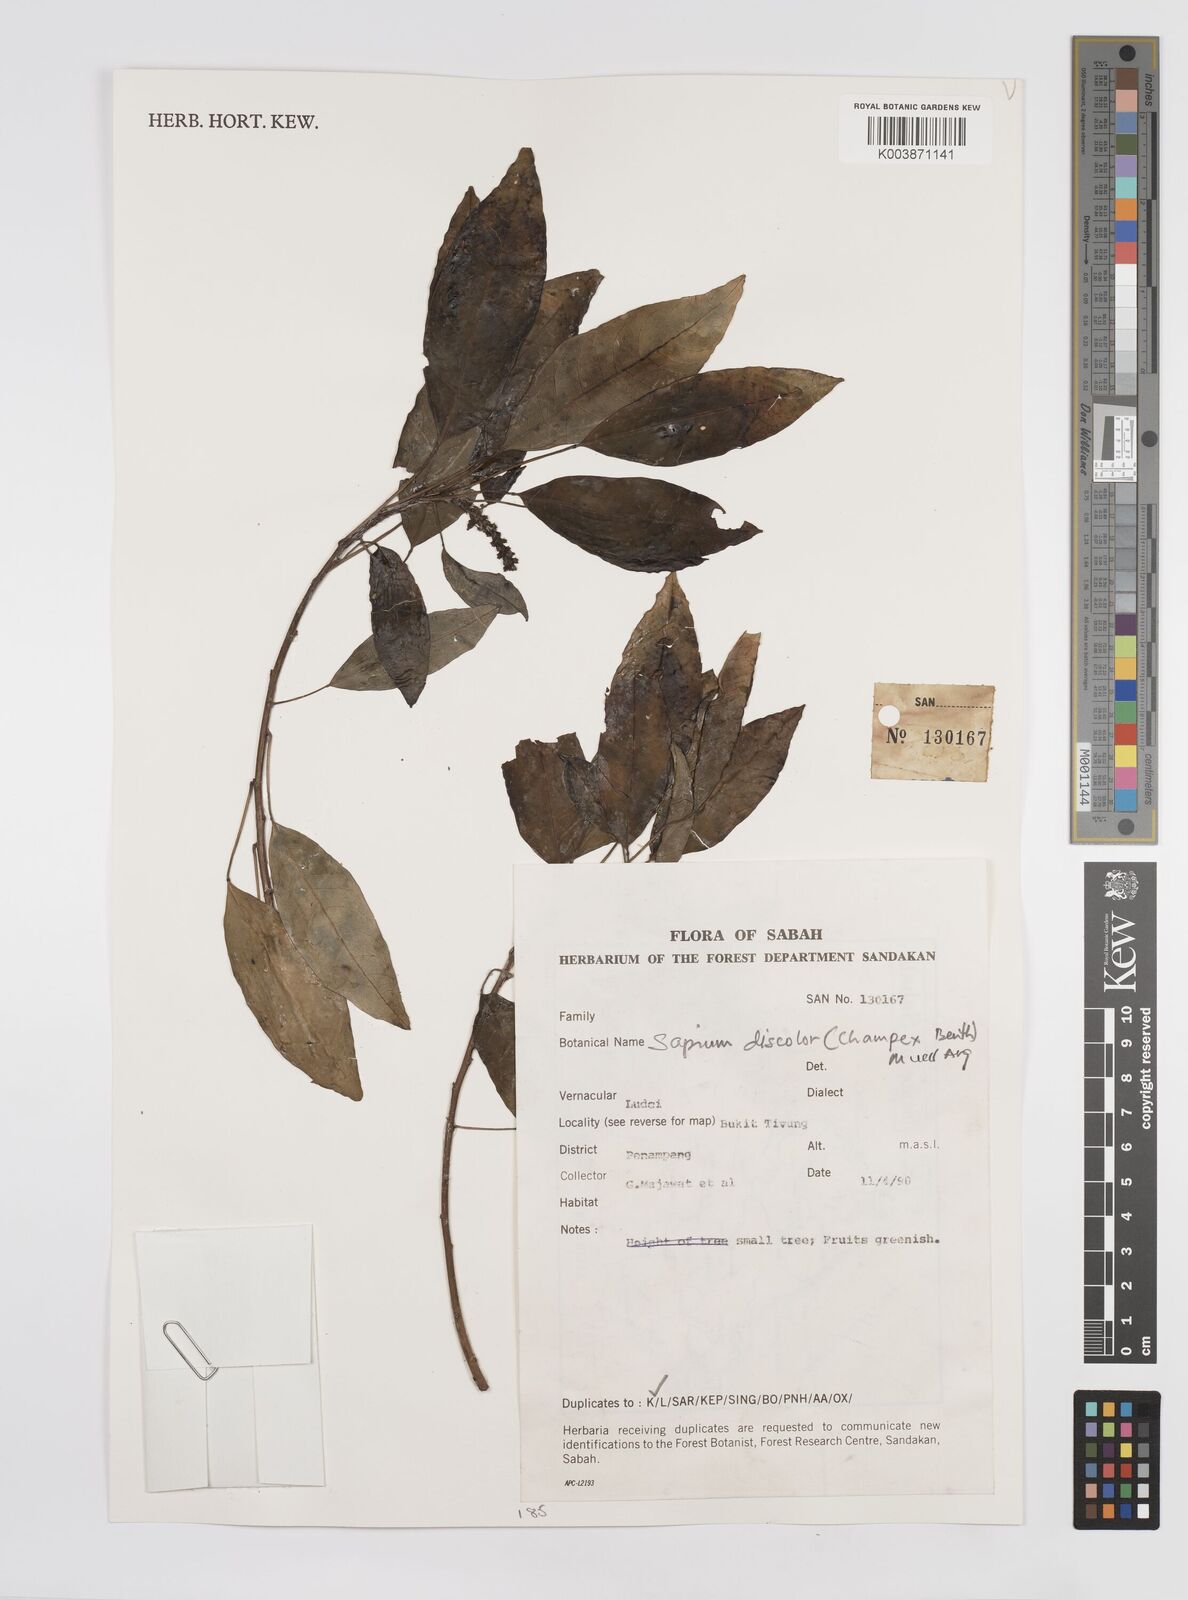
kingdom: Plantae
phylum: Tracheophyta
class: Magnoliopsida
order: Malpighiales
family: Euphorbiaceae
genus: Triadica
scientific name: Triadica cochinchinensis
